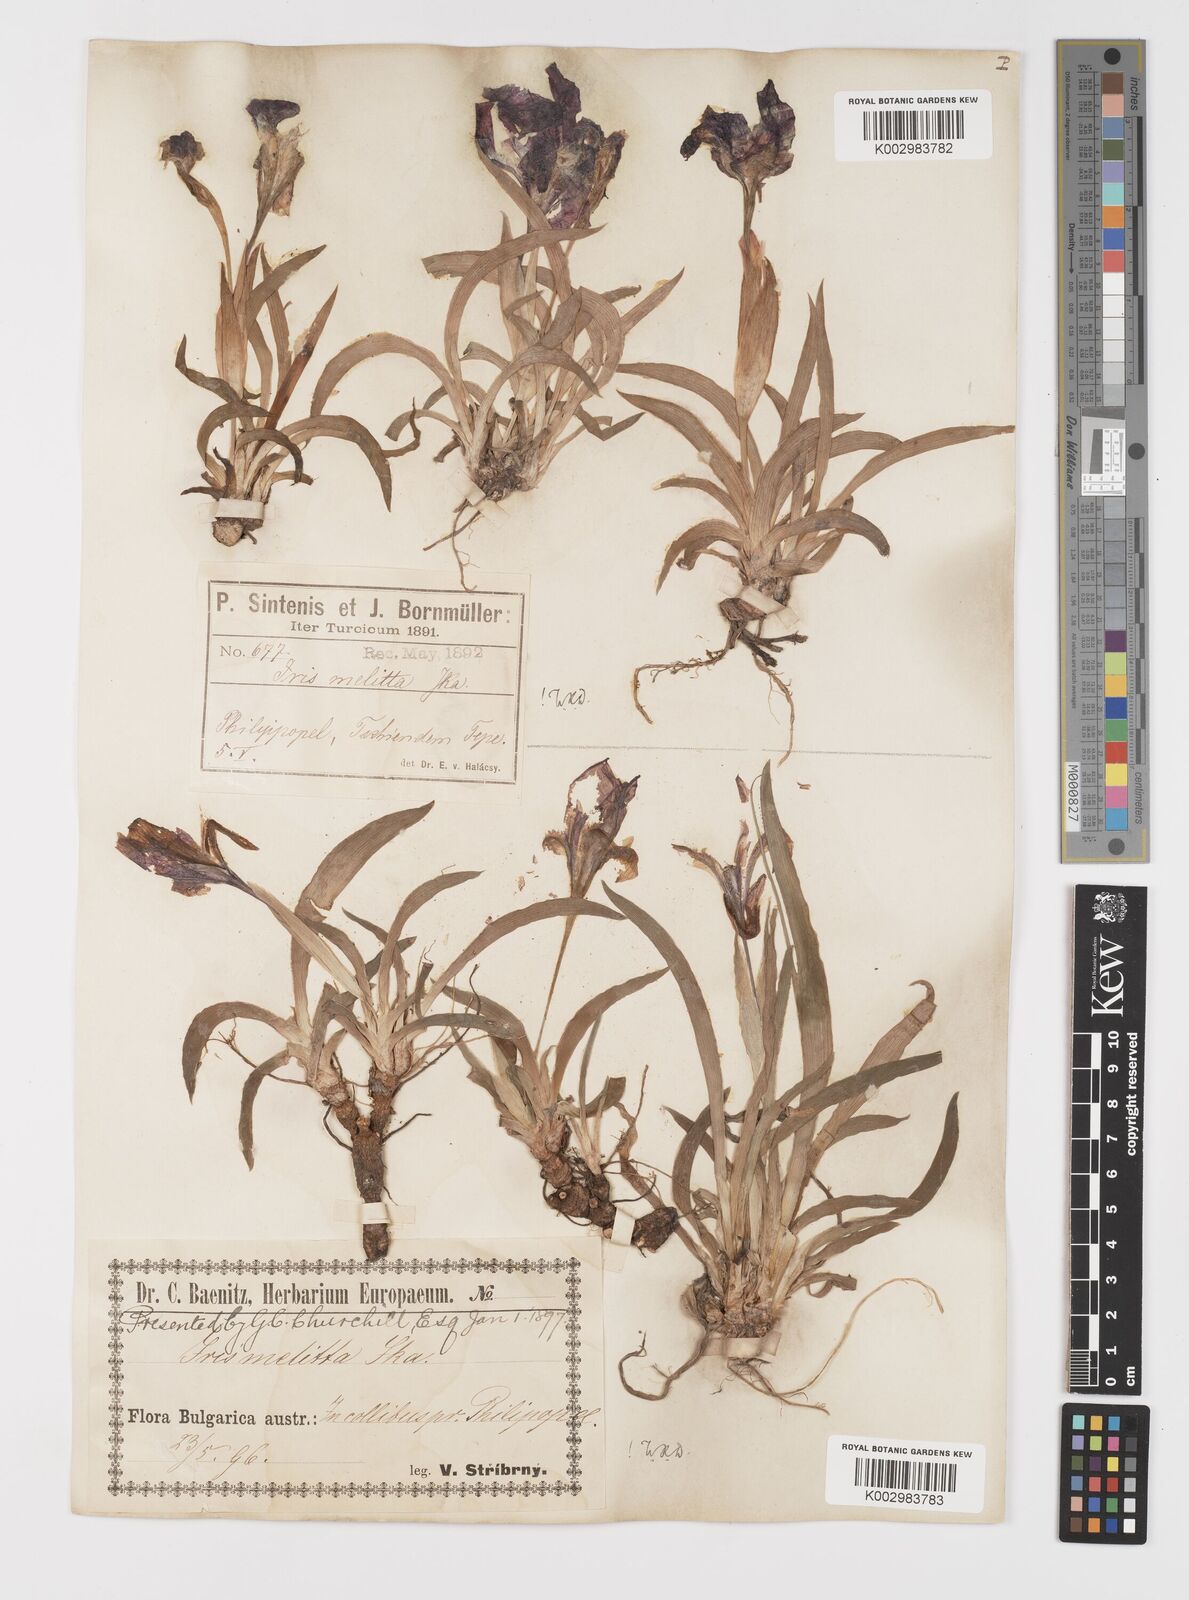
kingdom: Plantae
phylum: Tracheophyta
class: Liliopsida
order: Asparagales
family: Iridaceae
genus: Iris
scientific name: Iris suaveolens
